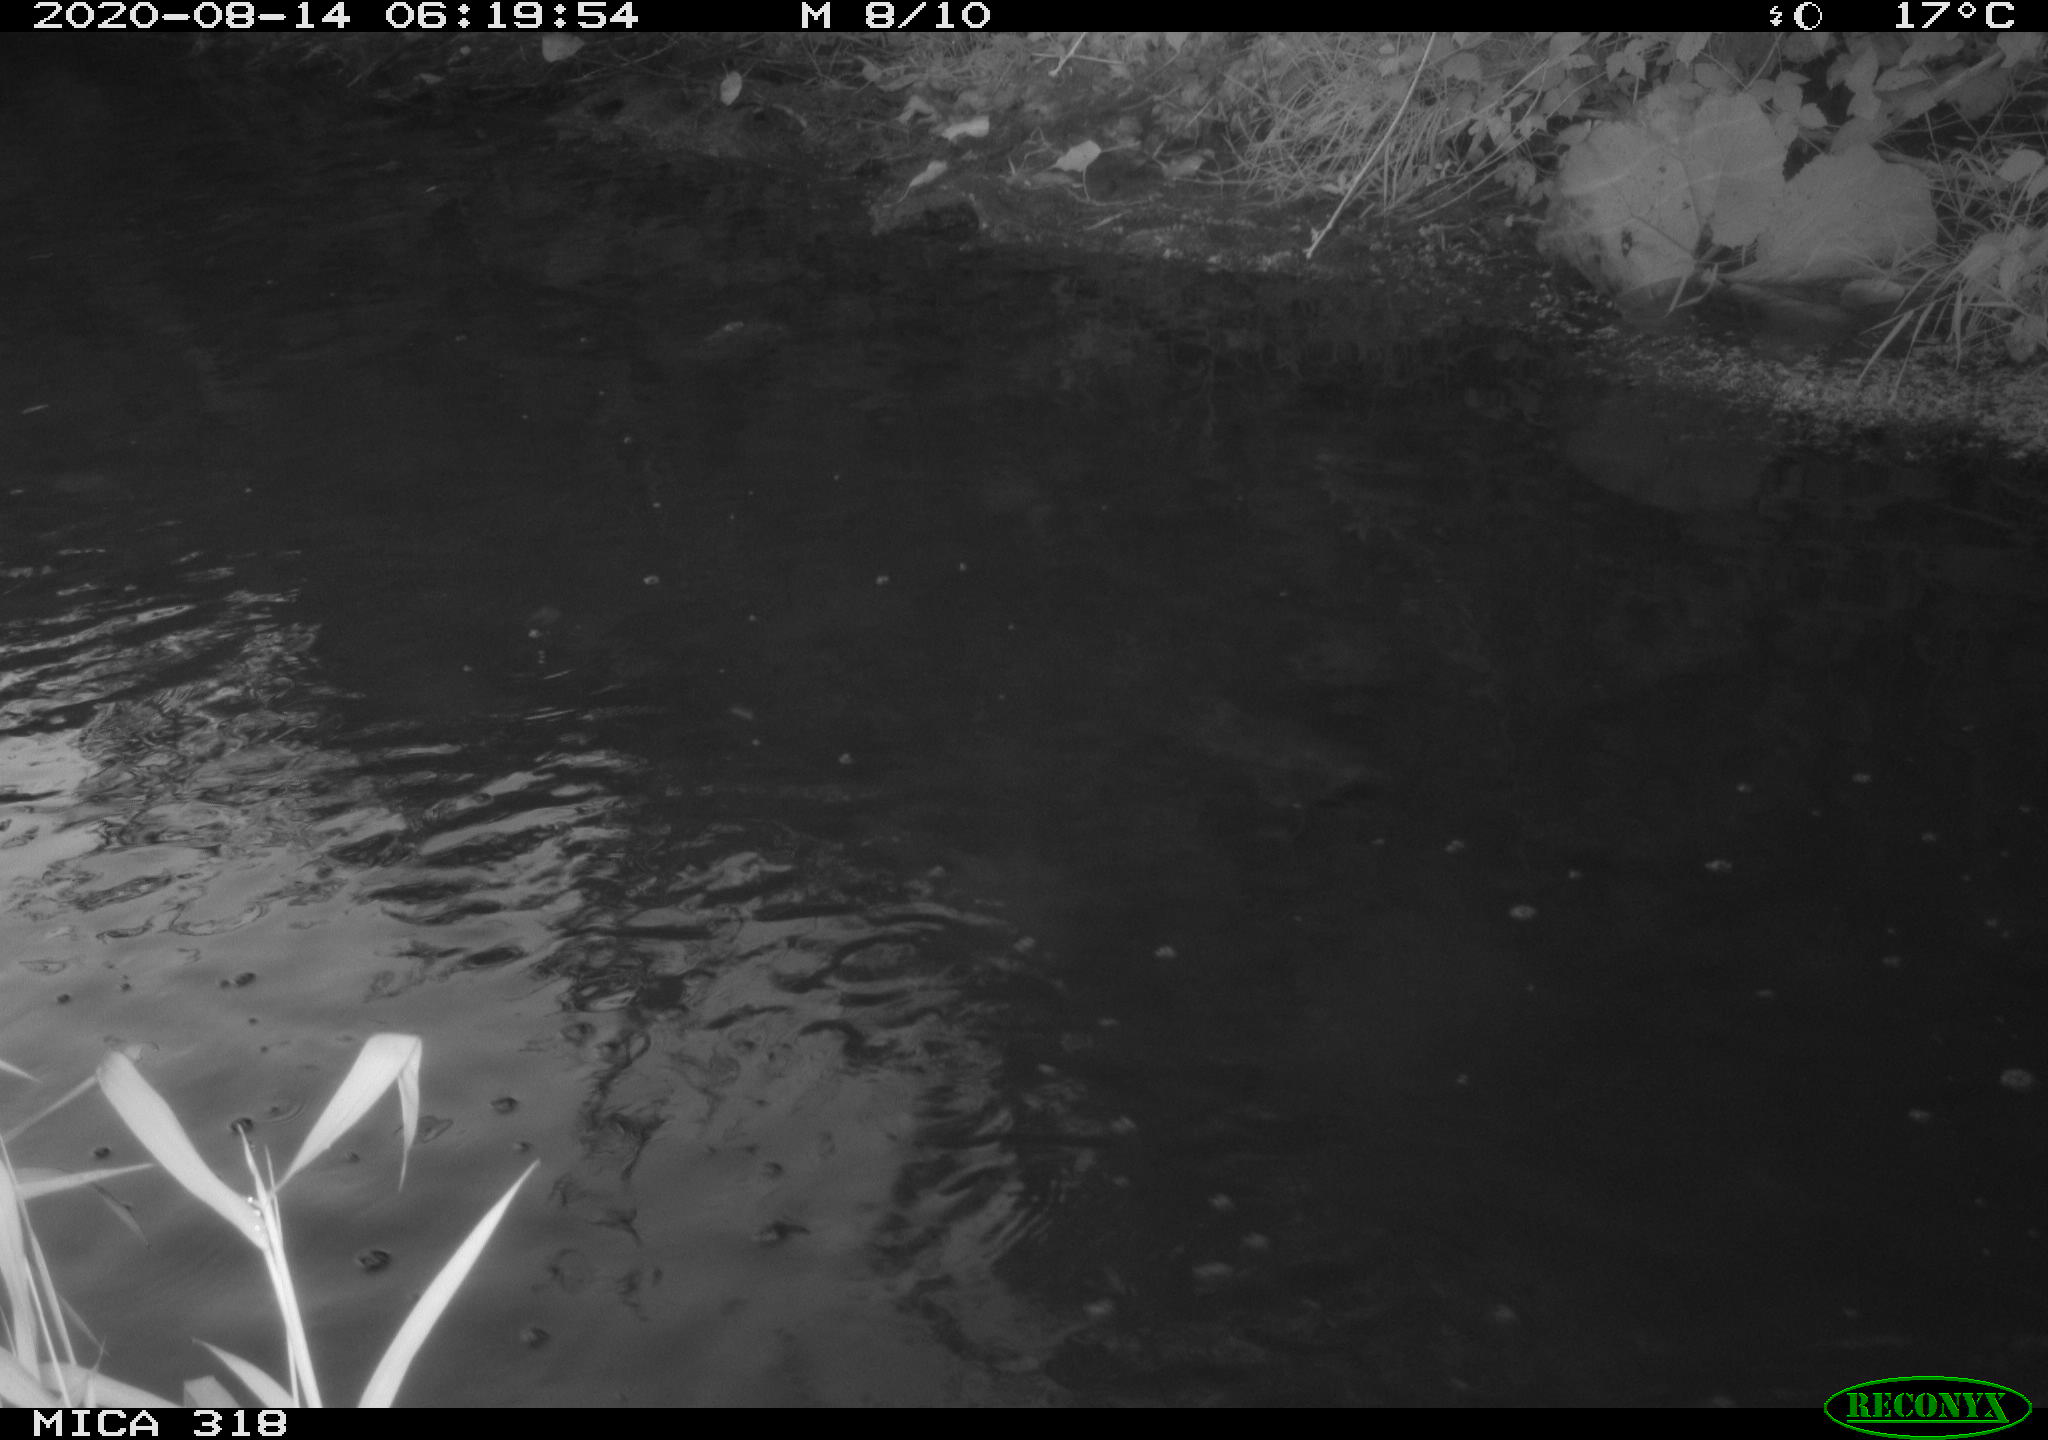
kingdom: Animalia
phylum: Chordata
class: Aves
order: Pelecaniformes
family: Ardeidae
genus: Ardea
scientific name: Ardea cinerea
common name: Grey heron
